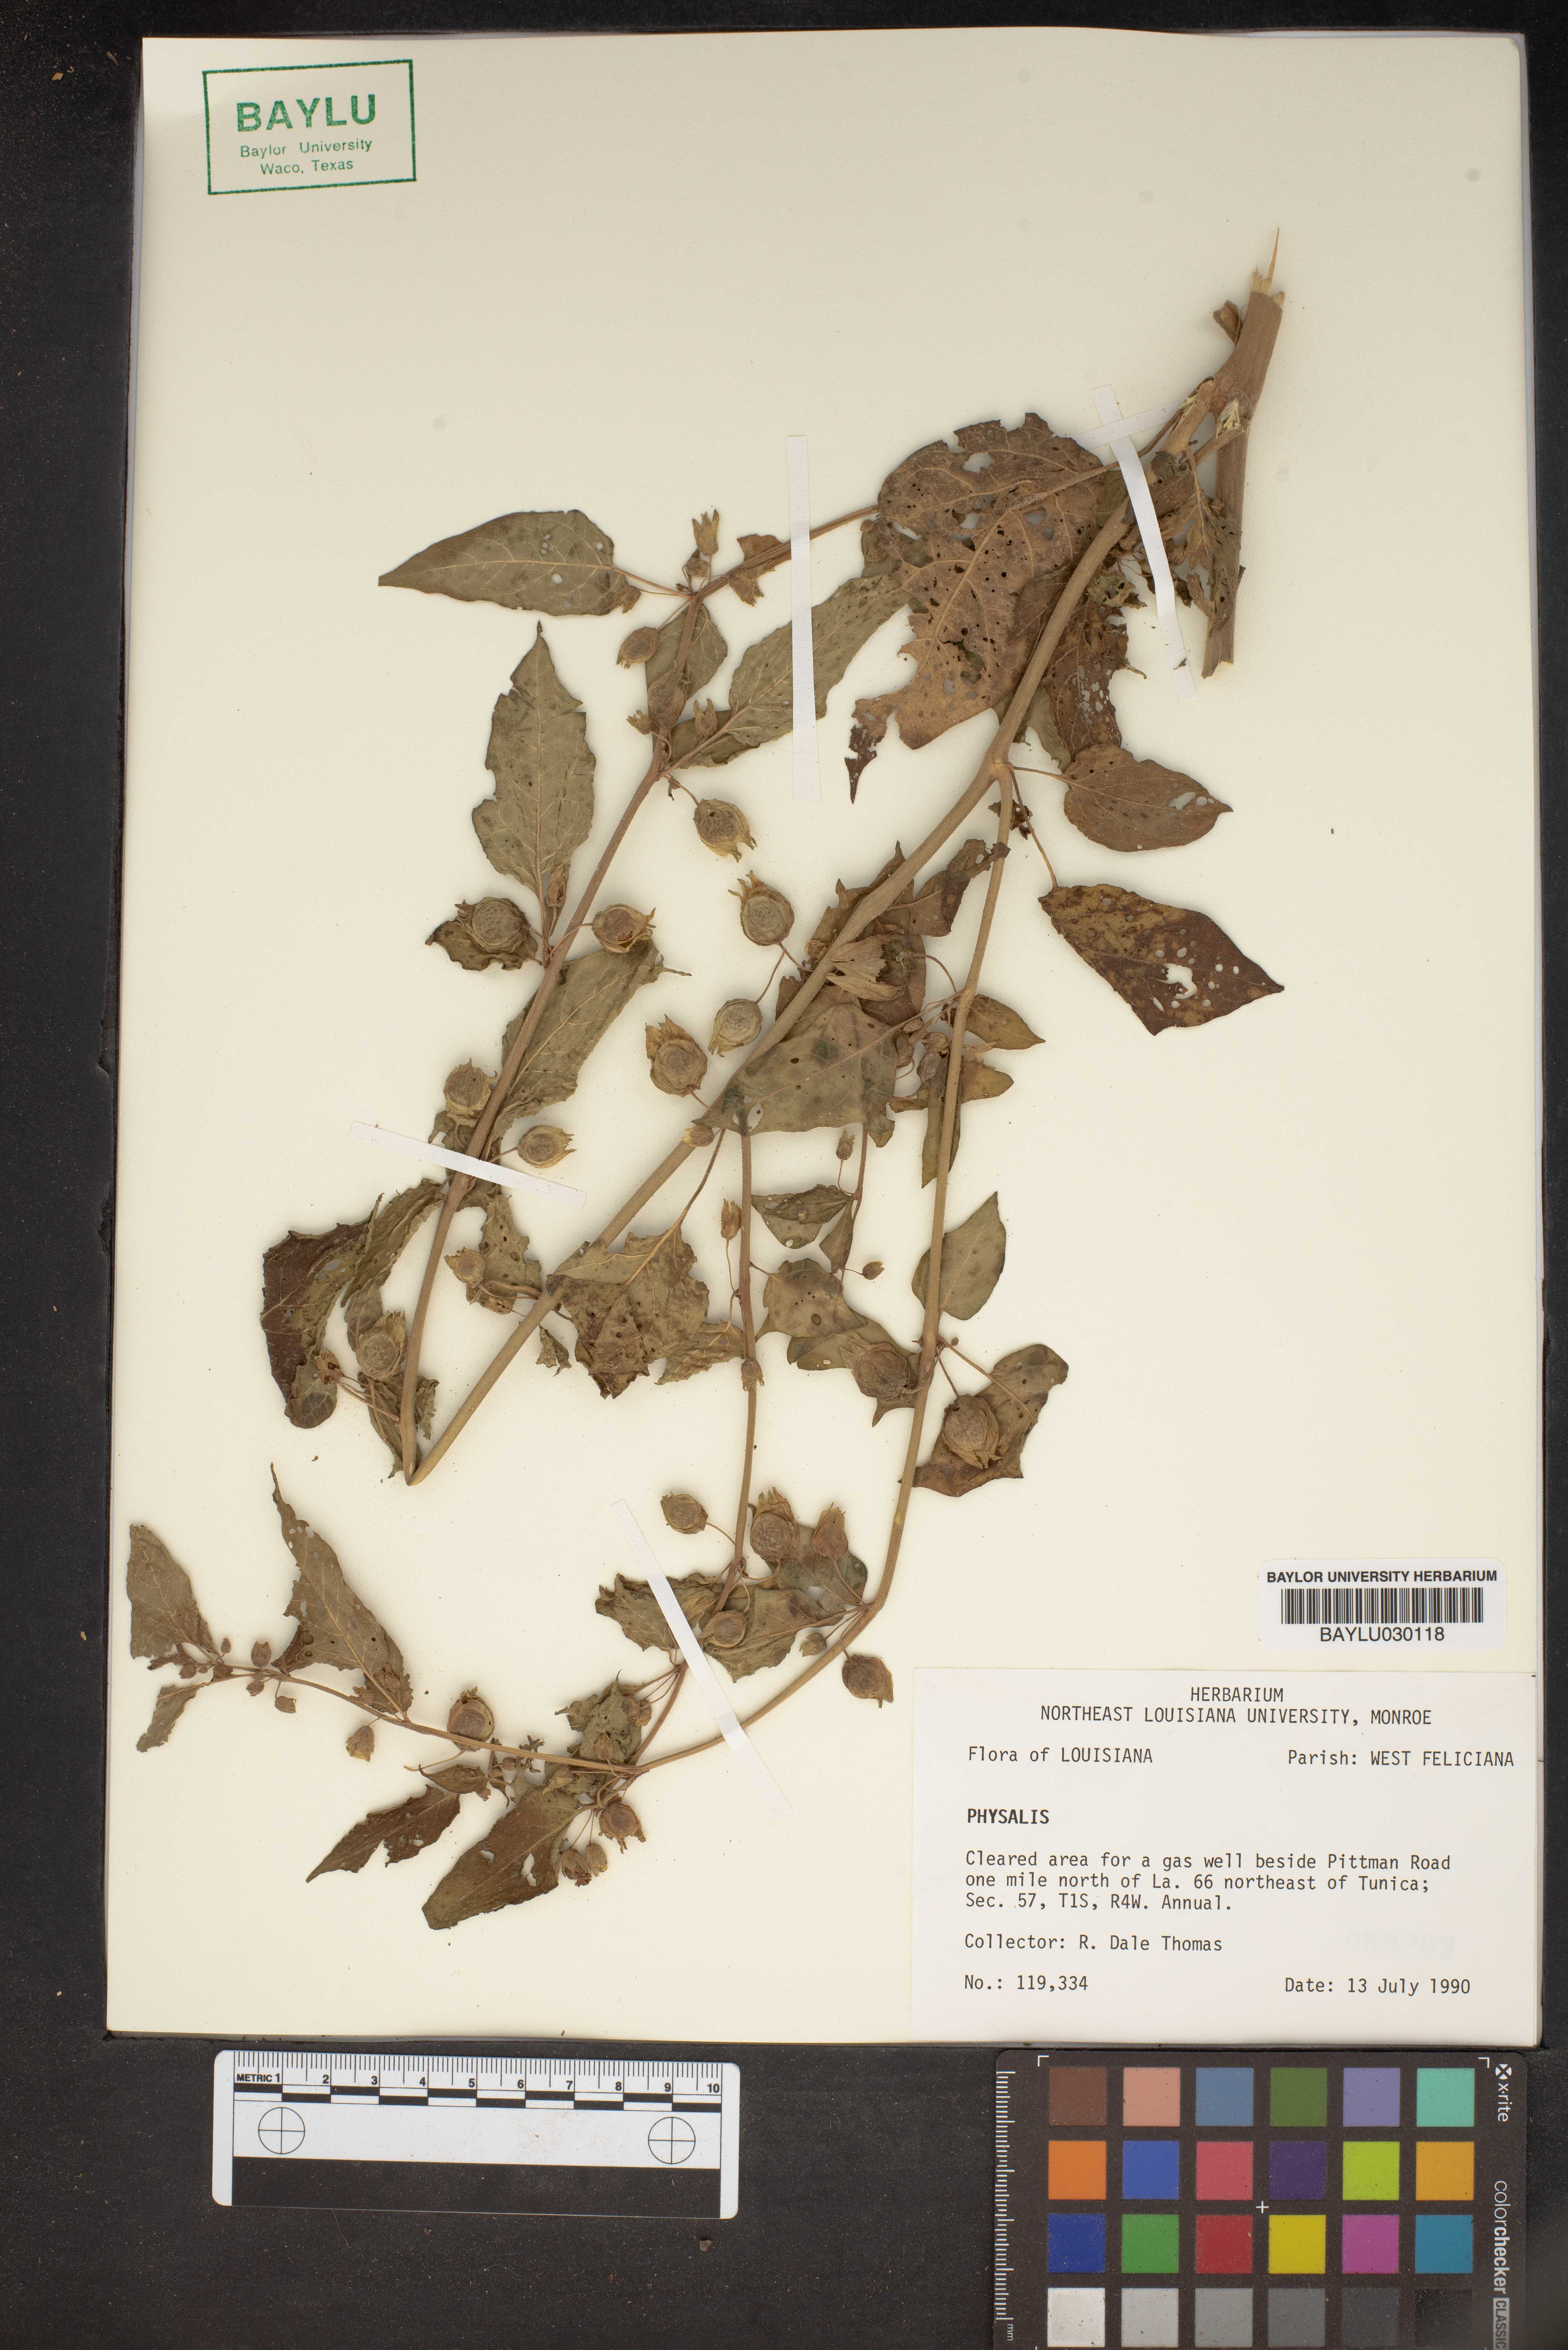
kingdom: Plantae
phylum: Tracheophyta
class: Magnoliopsida
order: Solanales
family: Solanaceae
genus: Physalis
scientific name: Physalis
